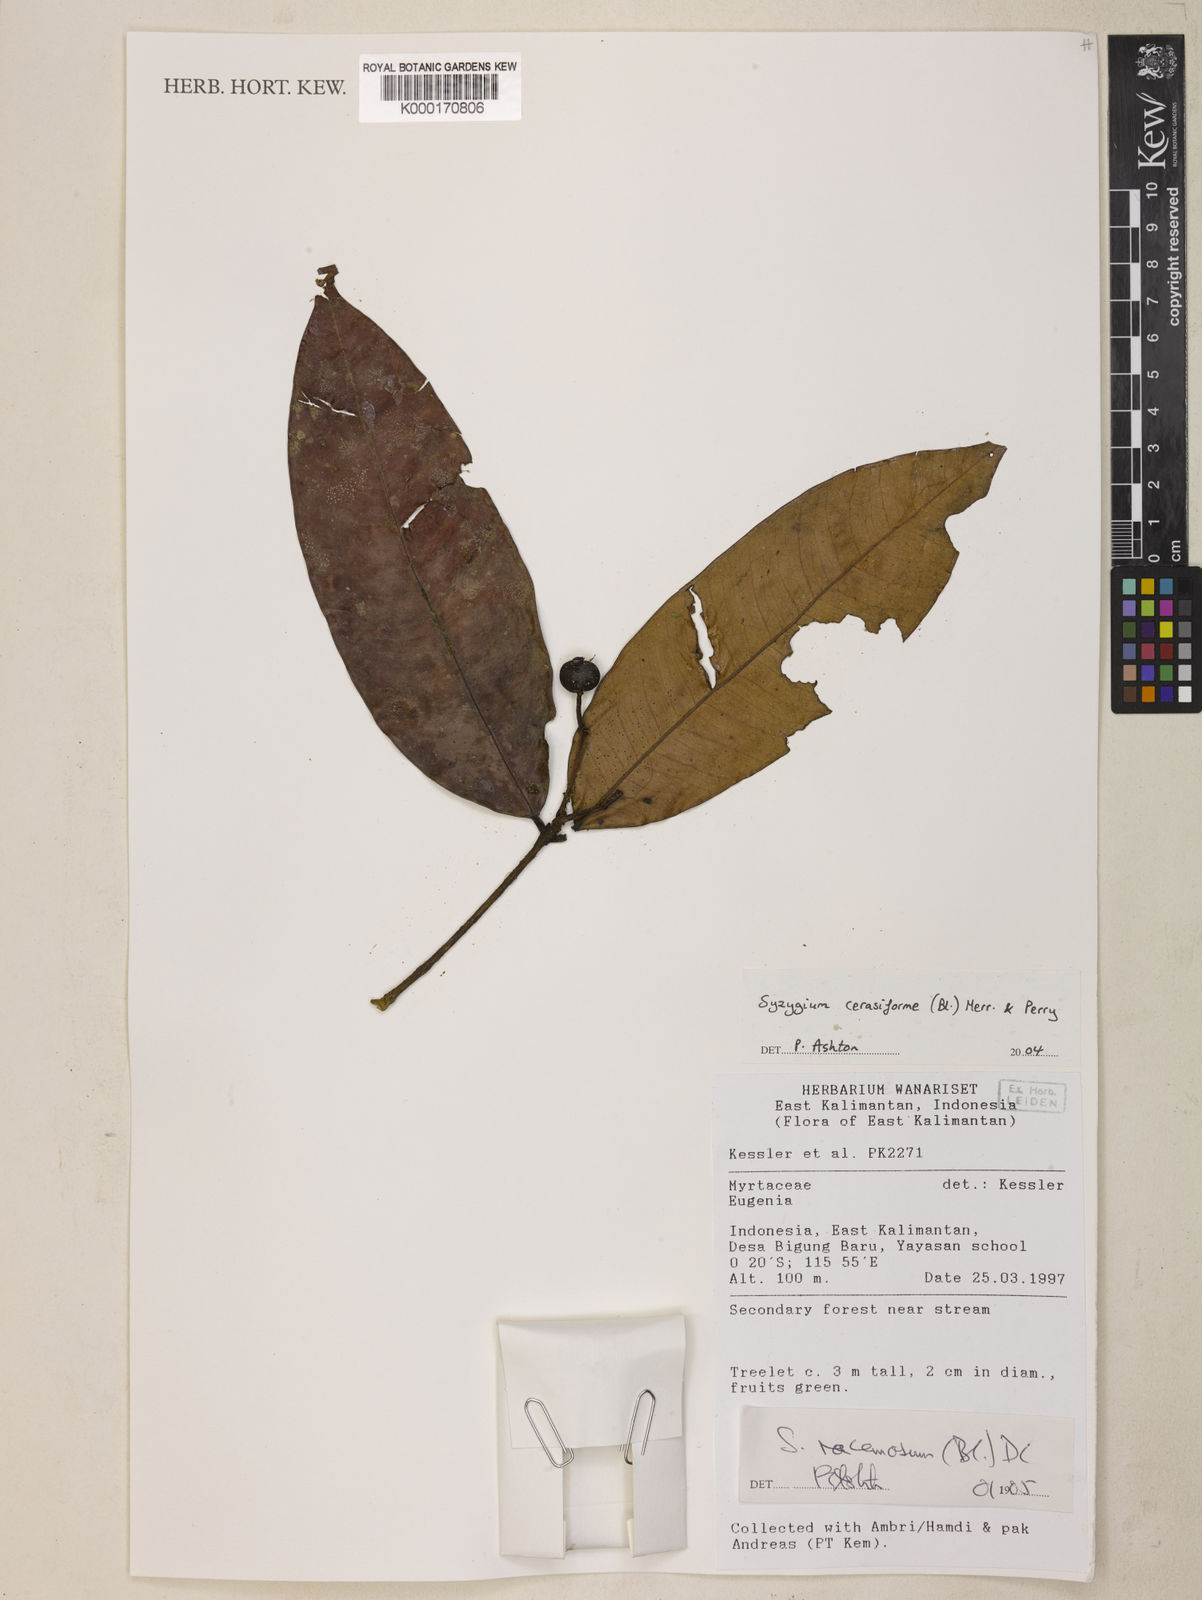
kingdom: Plantae
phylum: Tracheophyta
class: Magnoliopsida
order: Myrtales
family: Myrtaceae
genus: Syzygium
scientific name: Syzygium racemosum
